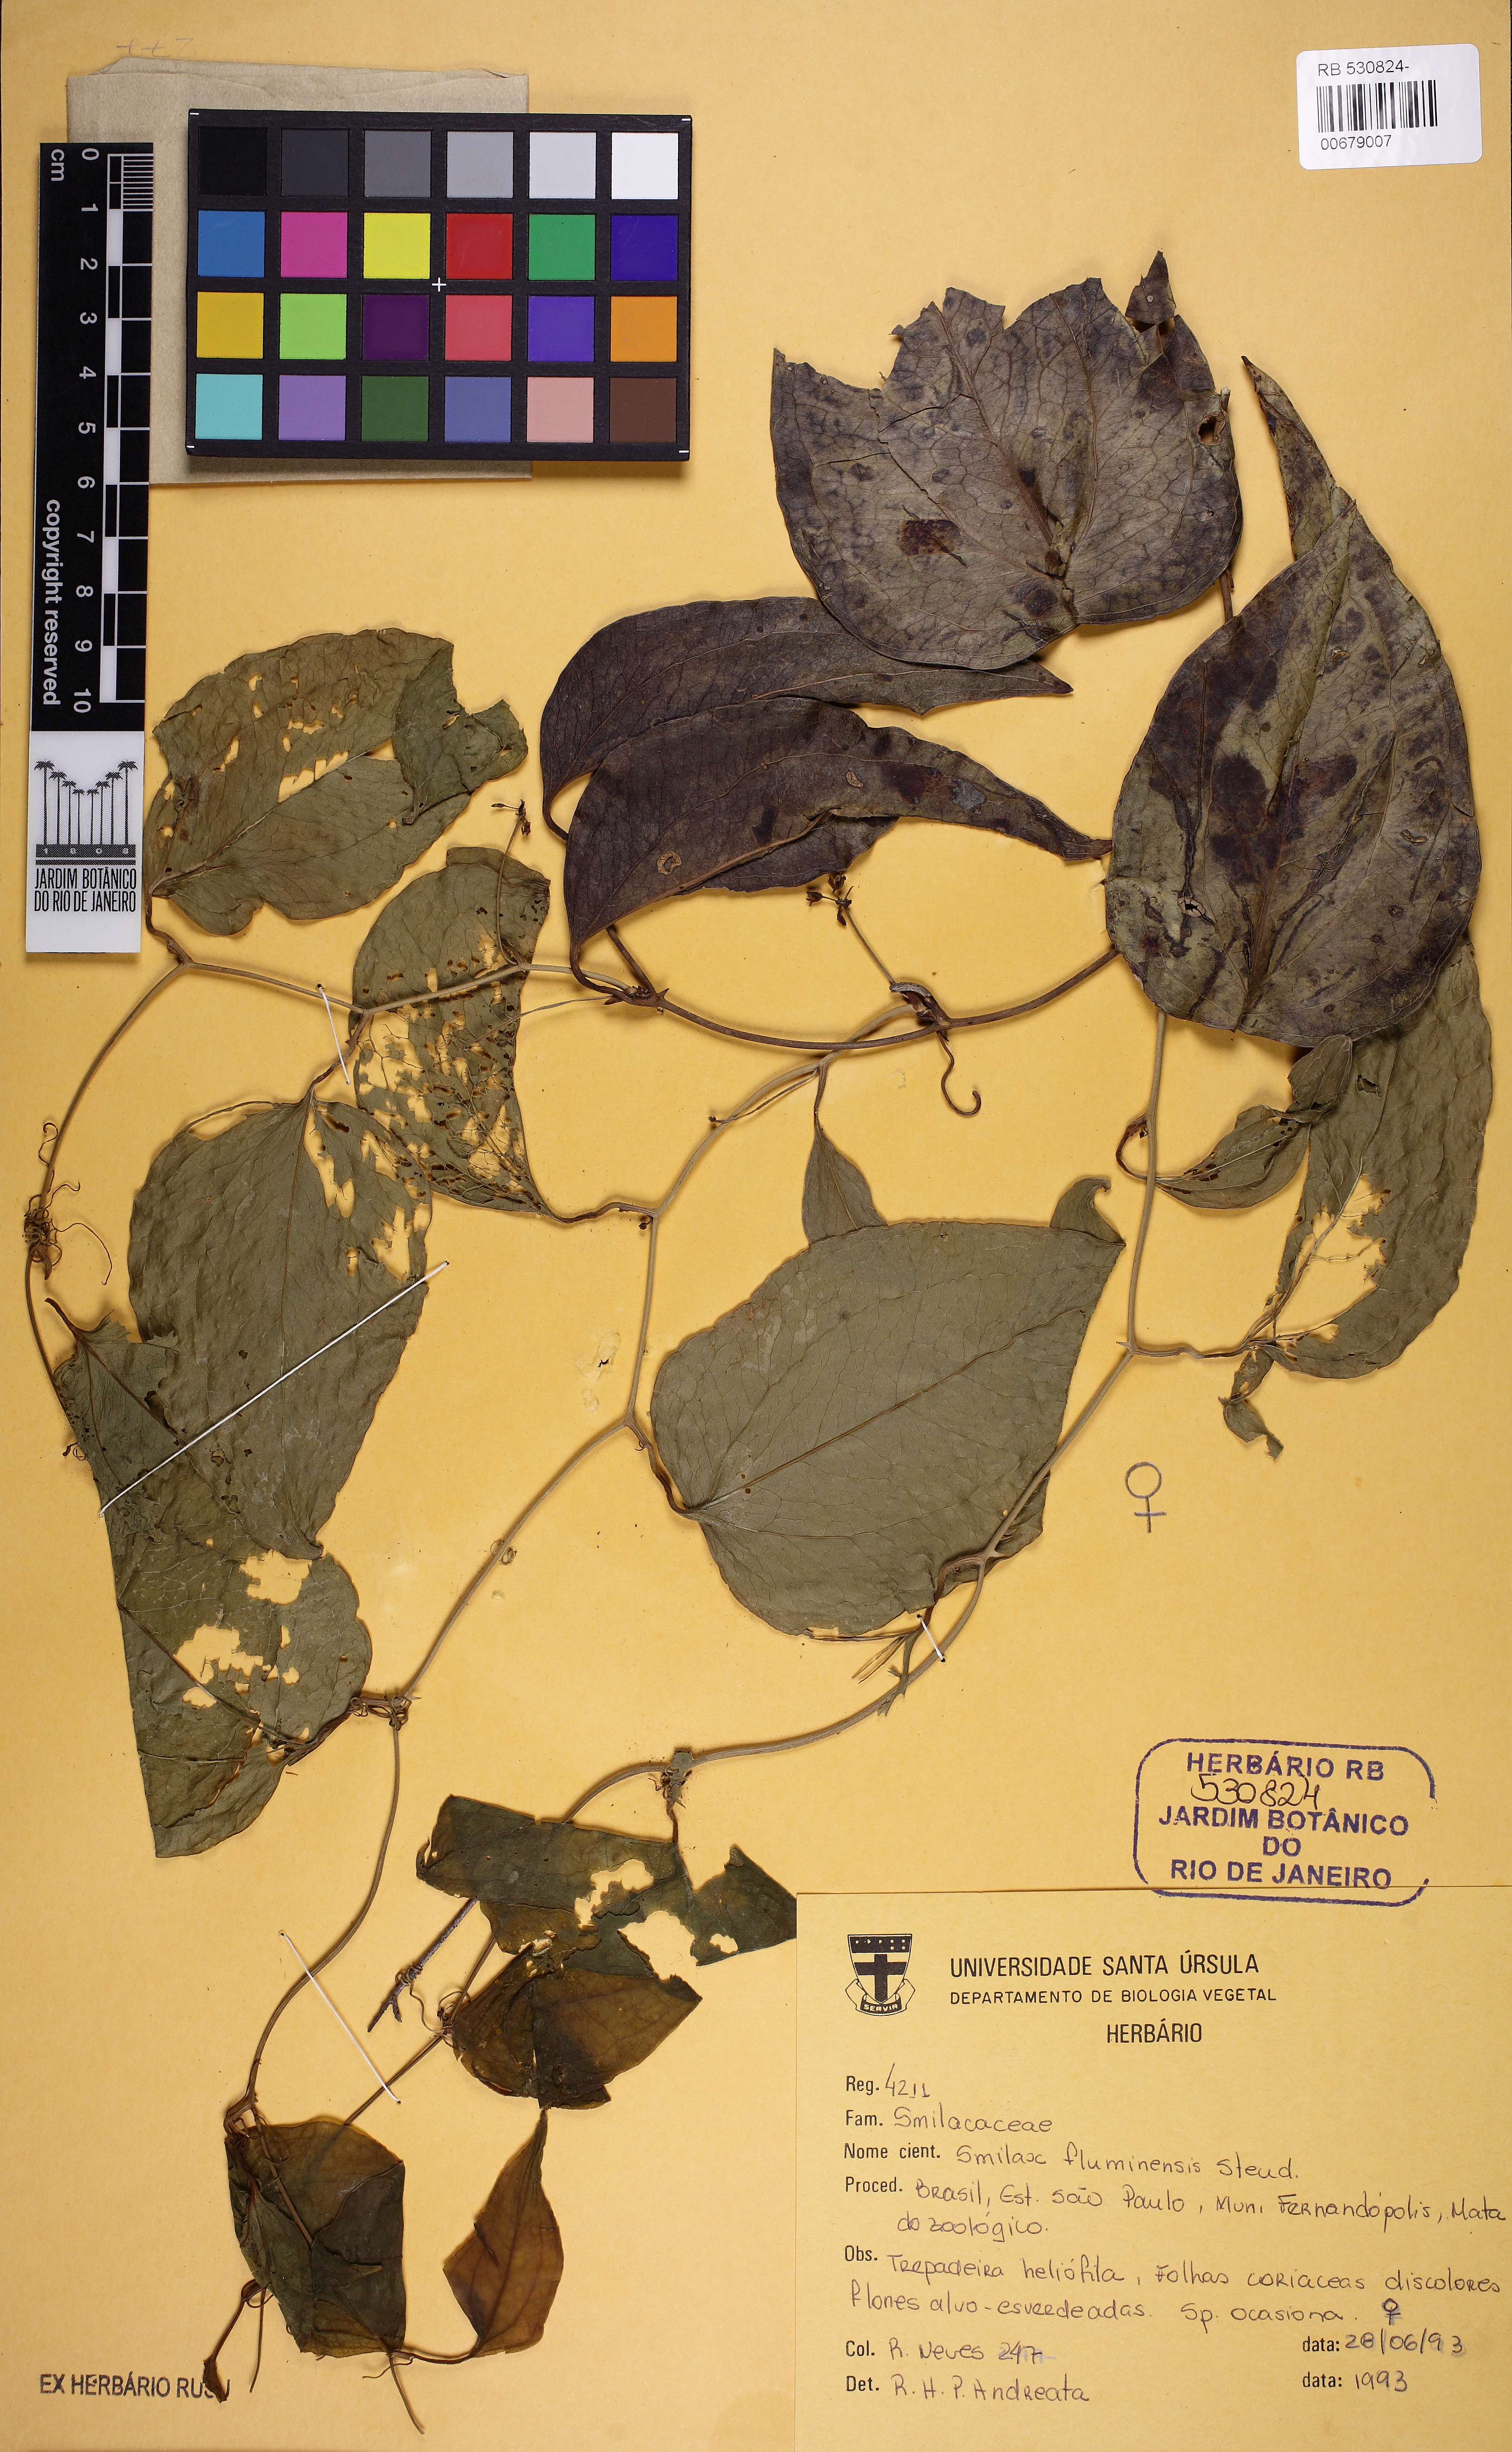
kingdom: Plantae
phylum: Tracheophyta
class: Liliopsida
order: Liliales
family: Smilacaceae
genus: Smilax
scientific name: Smilax fluminensis
